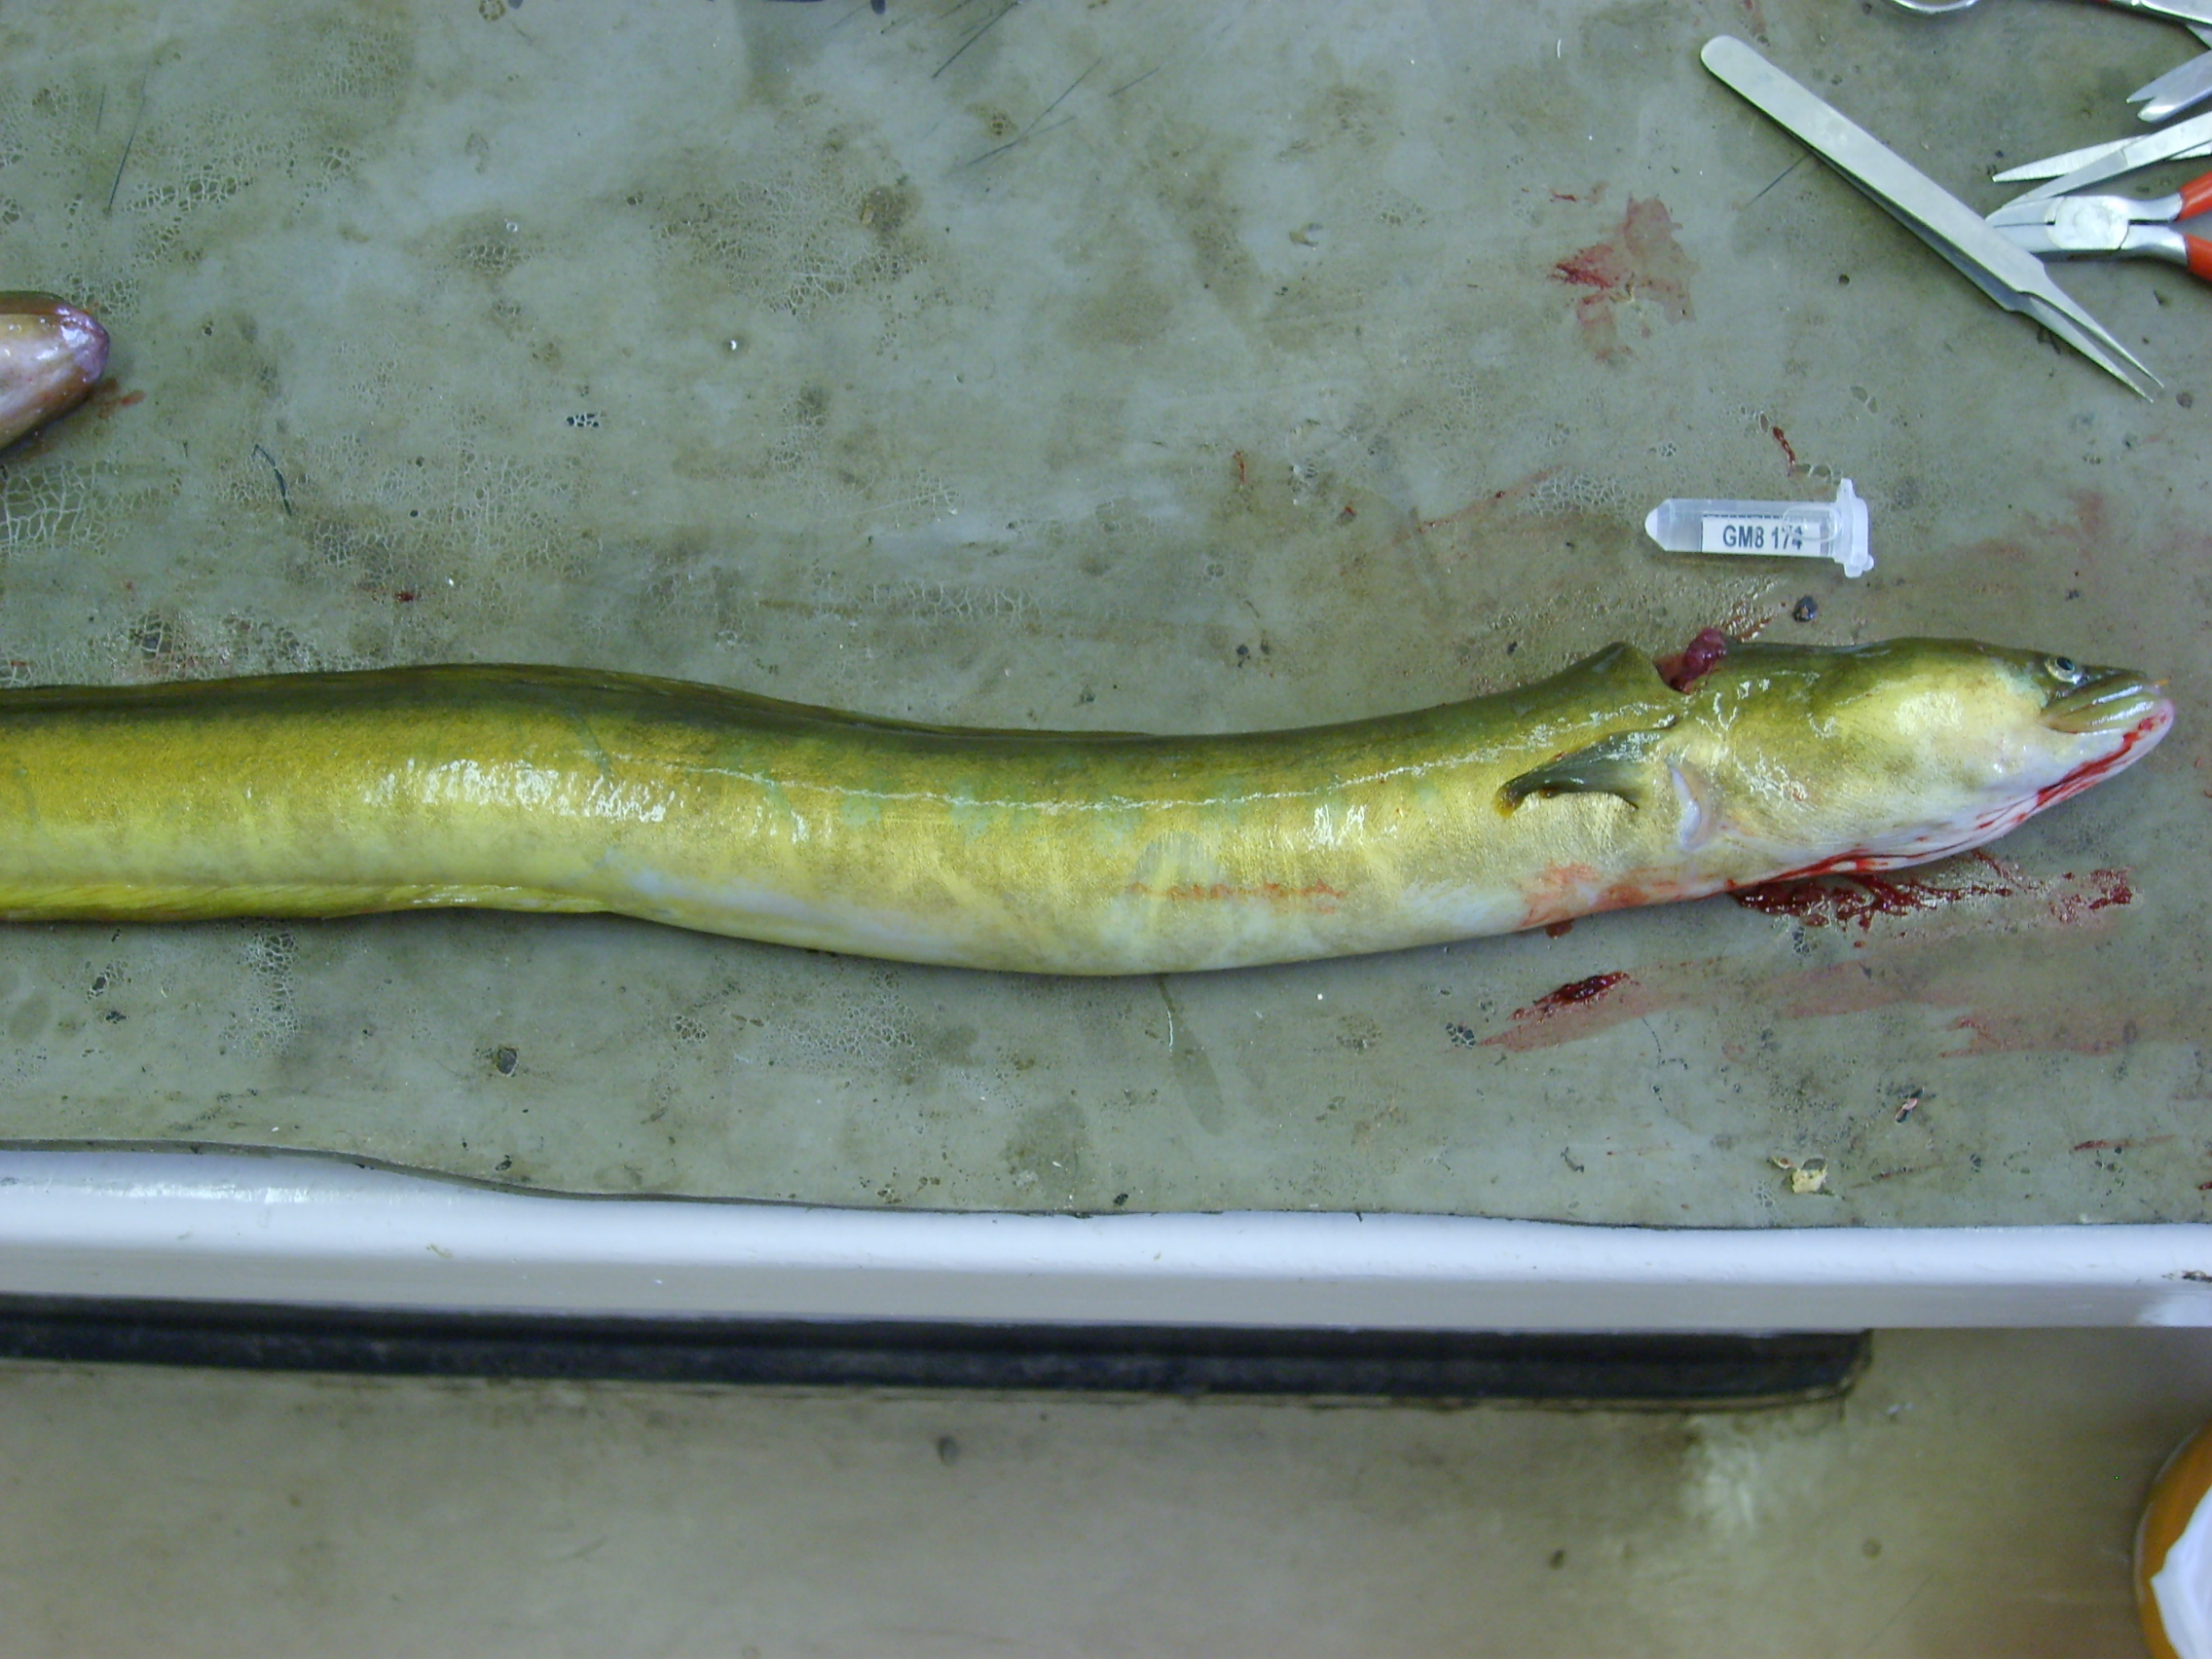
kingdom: Animalia
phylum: Chordata
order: Anguilliformes
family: Anguillidae
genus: Anguilla
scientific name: Anguilla mossambica
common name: African longfin eel
